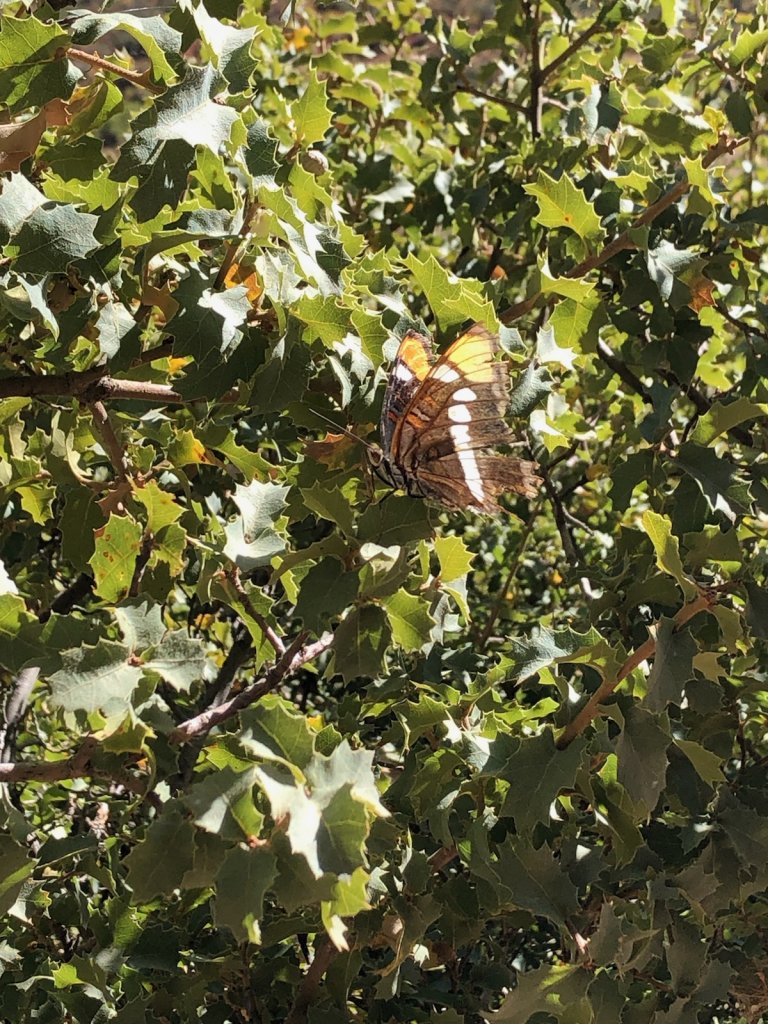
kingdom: Animalia
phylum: Arthropoda
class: Insecta
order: Lepidoptera
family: Nymphalidae
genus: Limenitis
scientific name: Limenitis bredowii
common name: Arizona Sister
